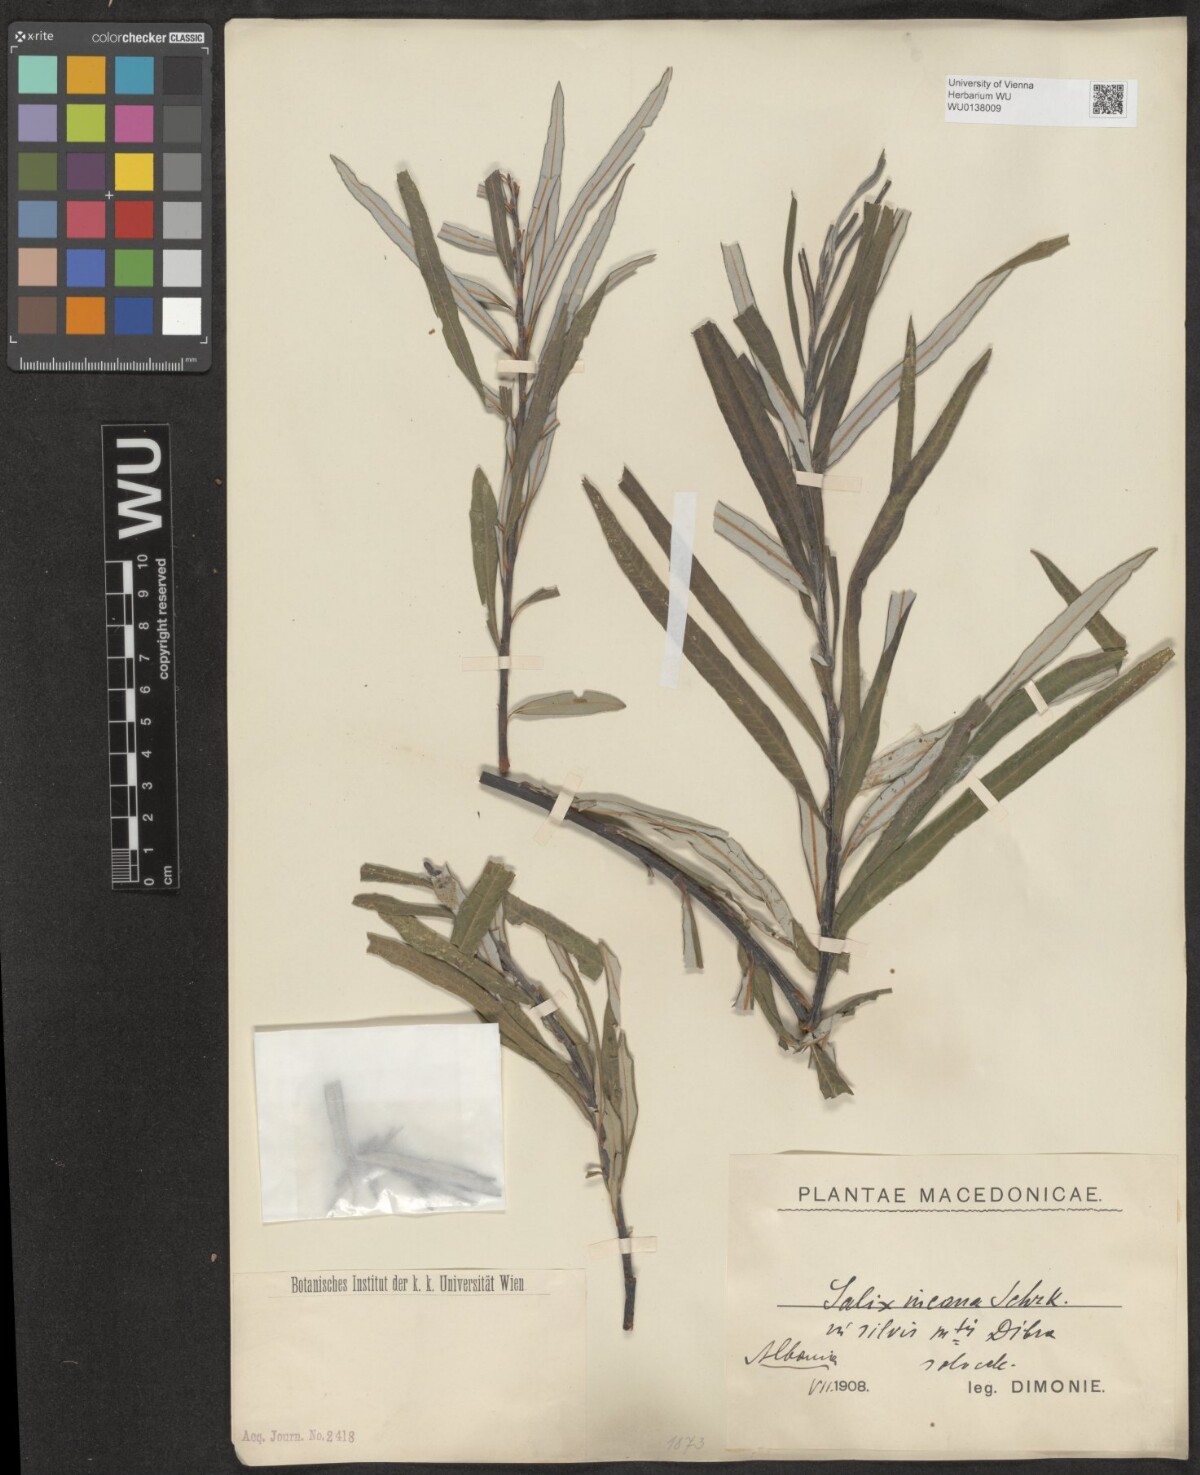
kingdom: Plantae
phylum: Tracheophyta
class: Magnoliopsida
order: Malpighiales
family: Salicaceae
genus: Salix
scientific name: Salix eleagnos
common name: Elaeagnus willow
